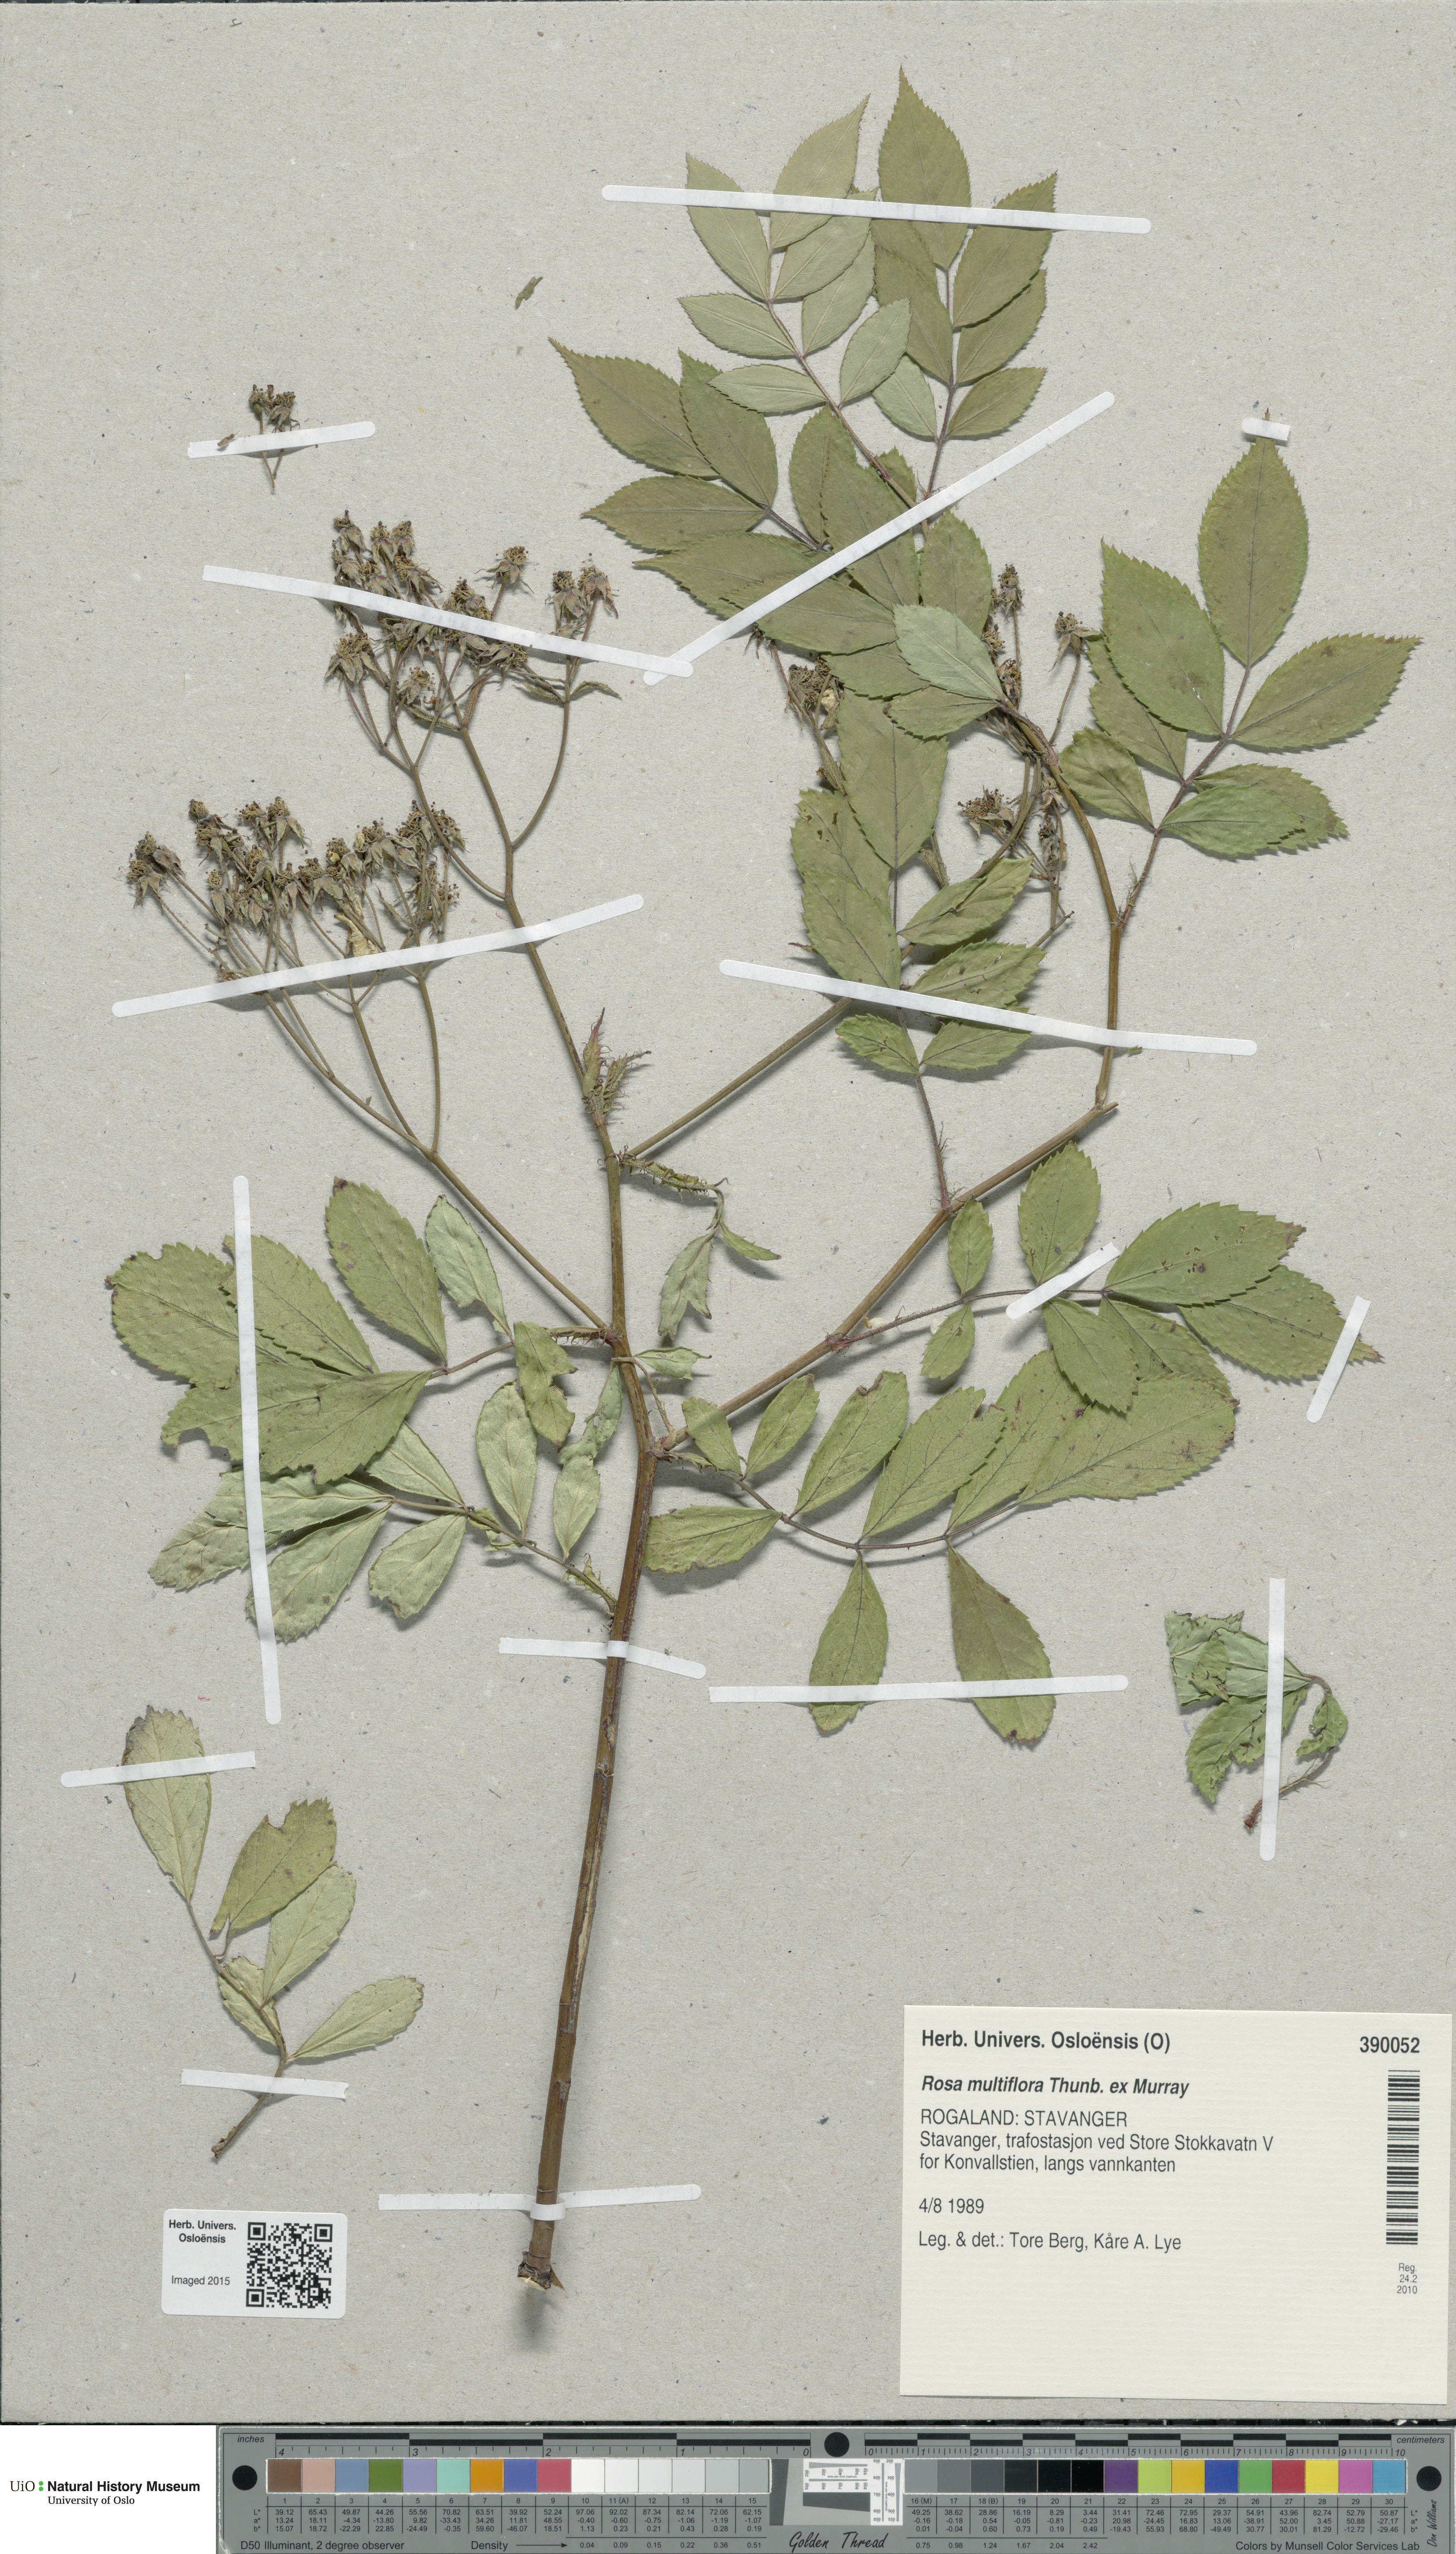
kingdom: Plantae
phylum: Tracheophyta
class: Magnoliopsida
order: Rosales
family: Rosaceae
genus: Rosa
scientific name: Rosa multiflora
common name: Multiflora rose
